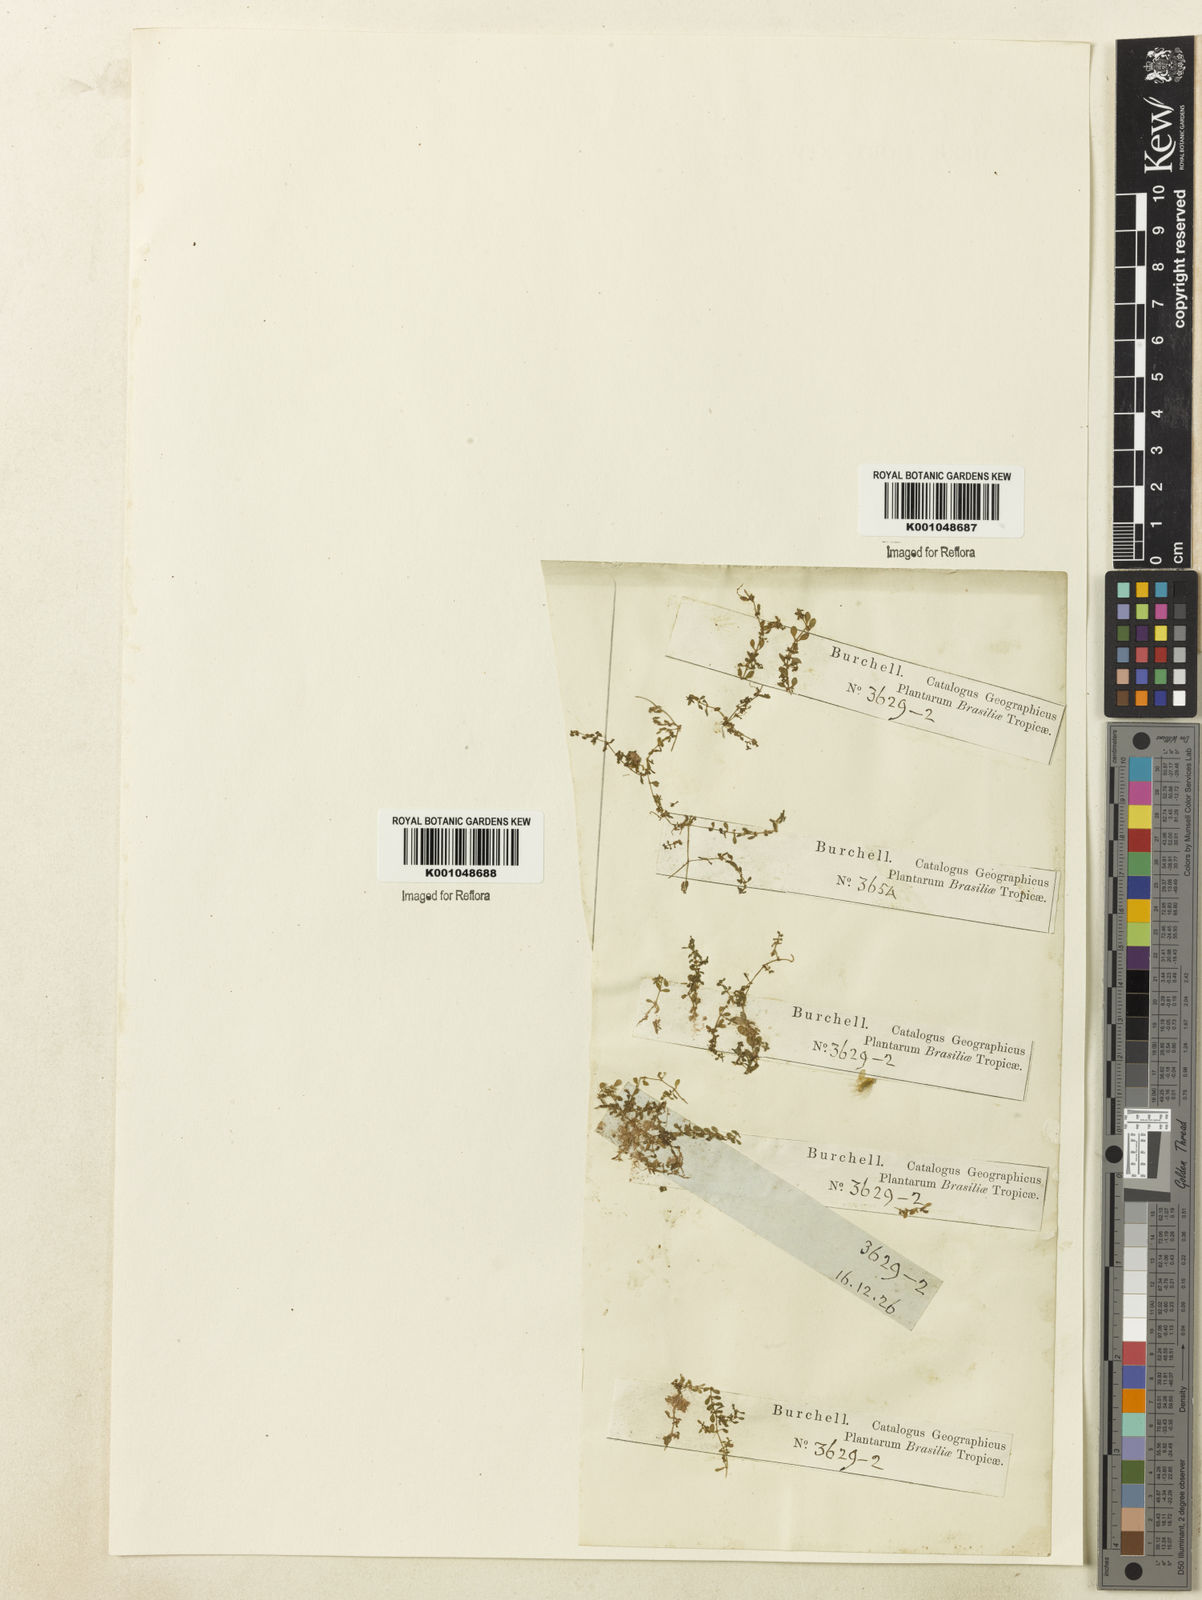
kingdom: Plantae
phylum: Tracheophyta
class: Magnoliopsida
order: Lamiales
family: Plantaginaceae
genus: Callitriche
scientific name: Callitriche peploides
